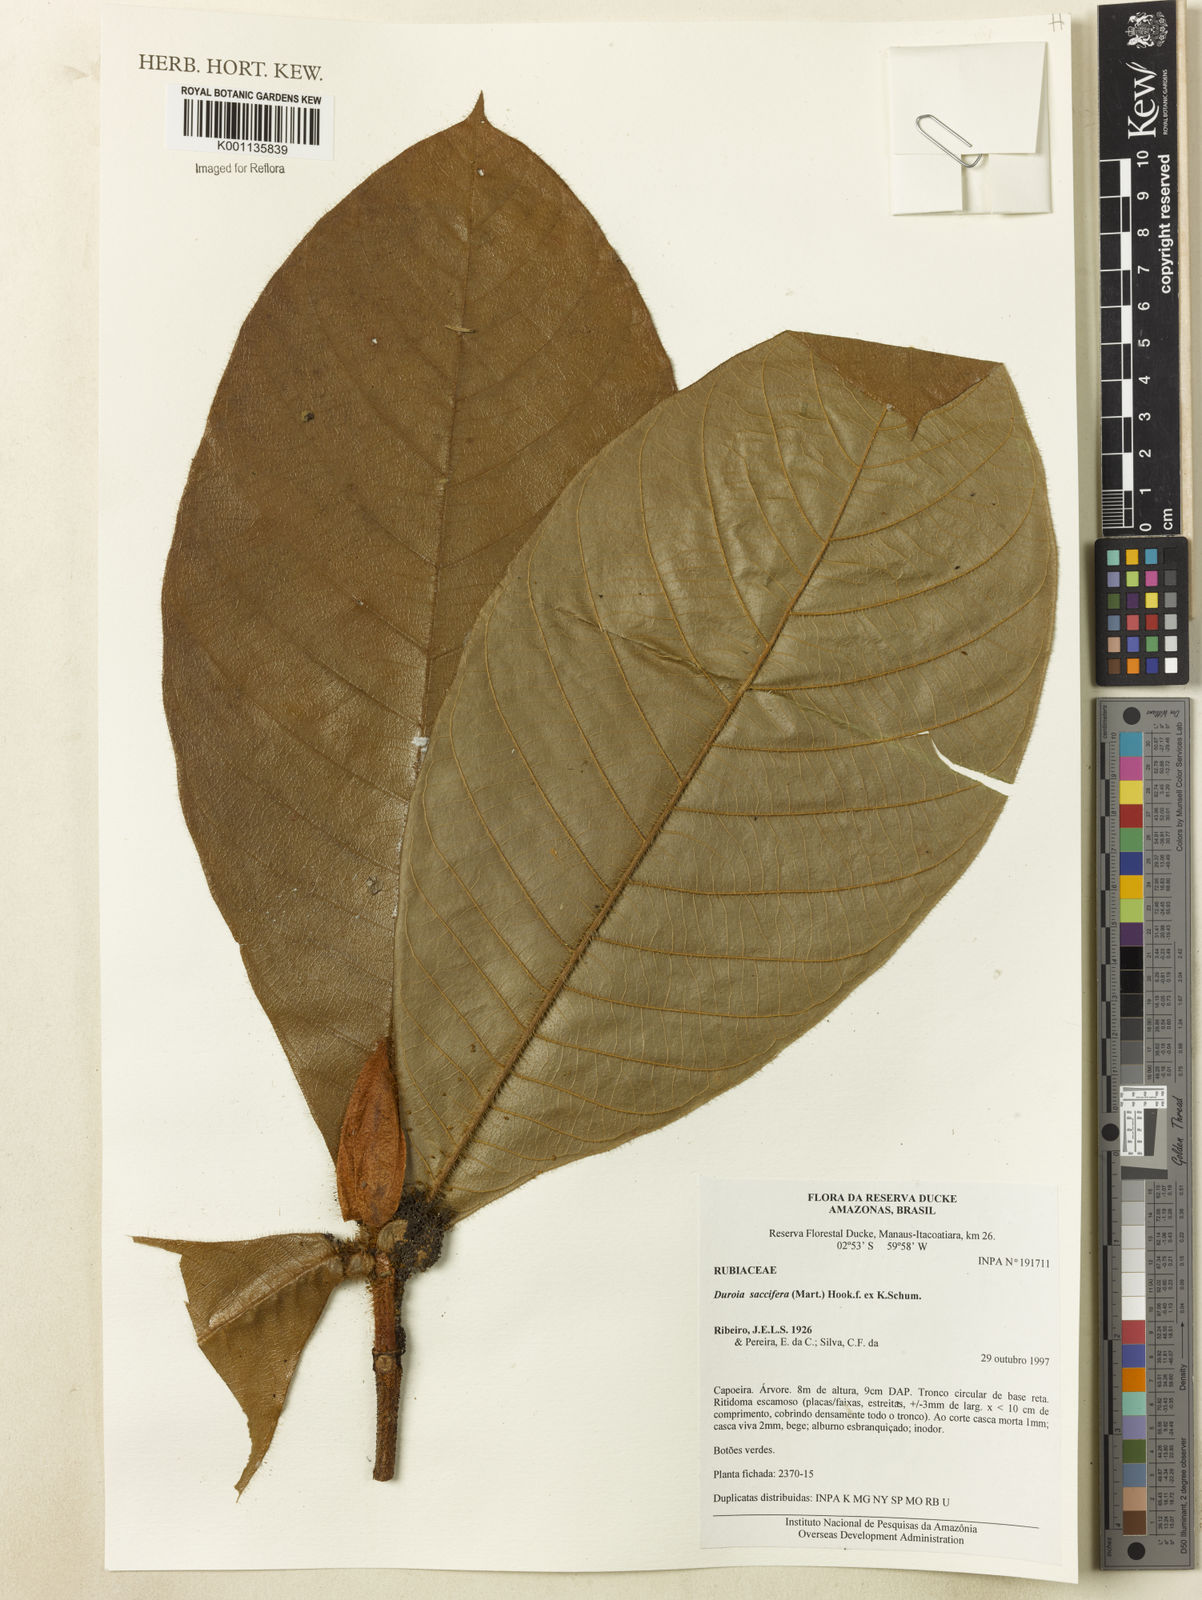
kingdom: Plantae
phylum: Tracheophyta
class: Magnoliopsida
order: Gentianales
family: Rubiaceae
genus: Duroia
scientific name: Duroia saccifera
